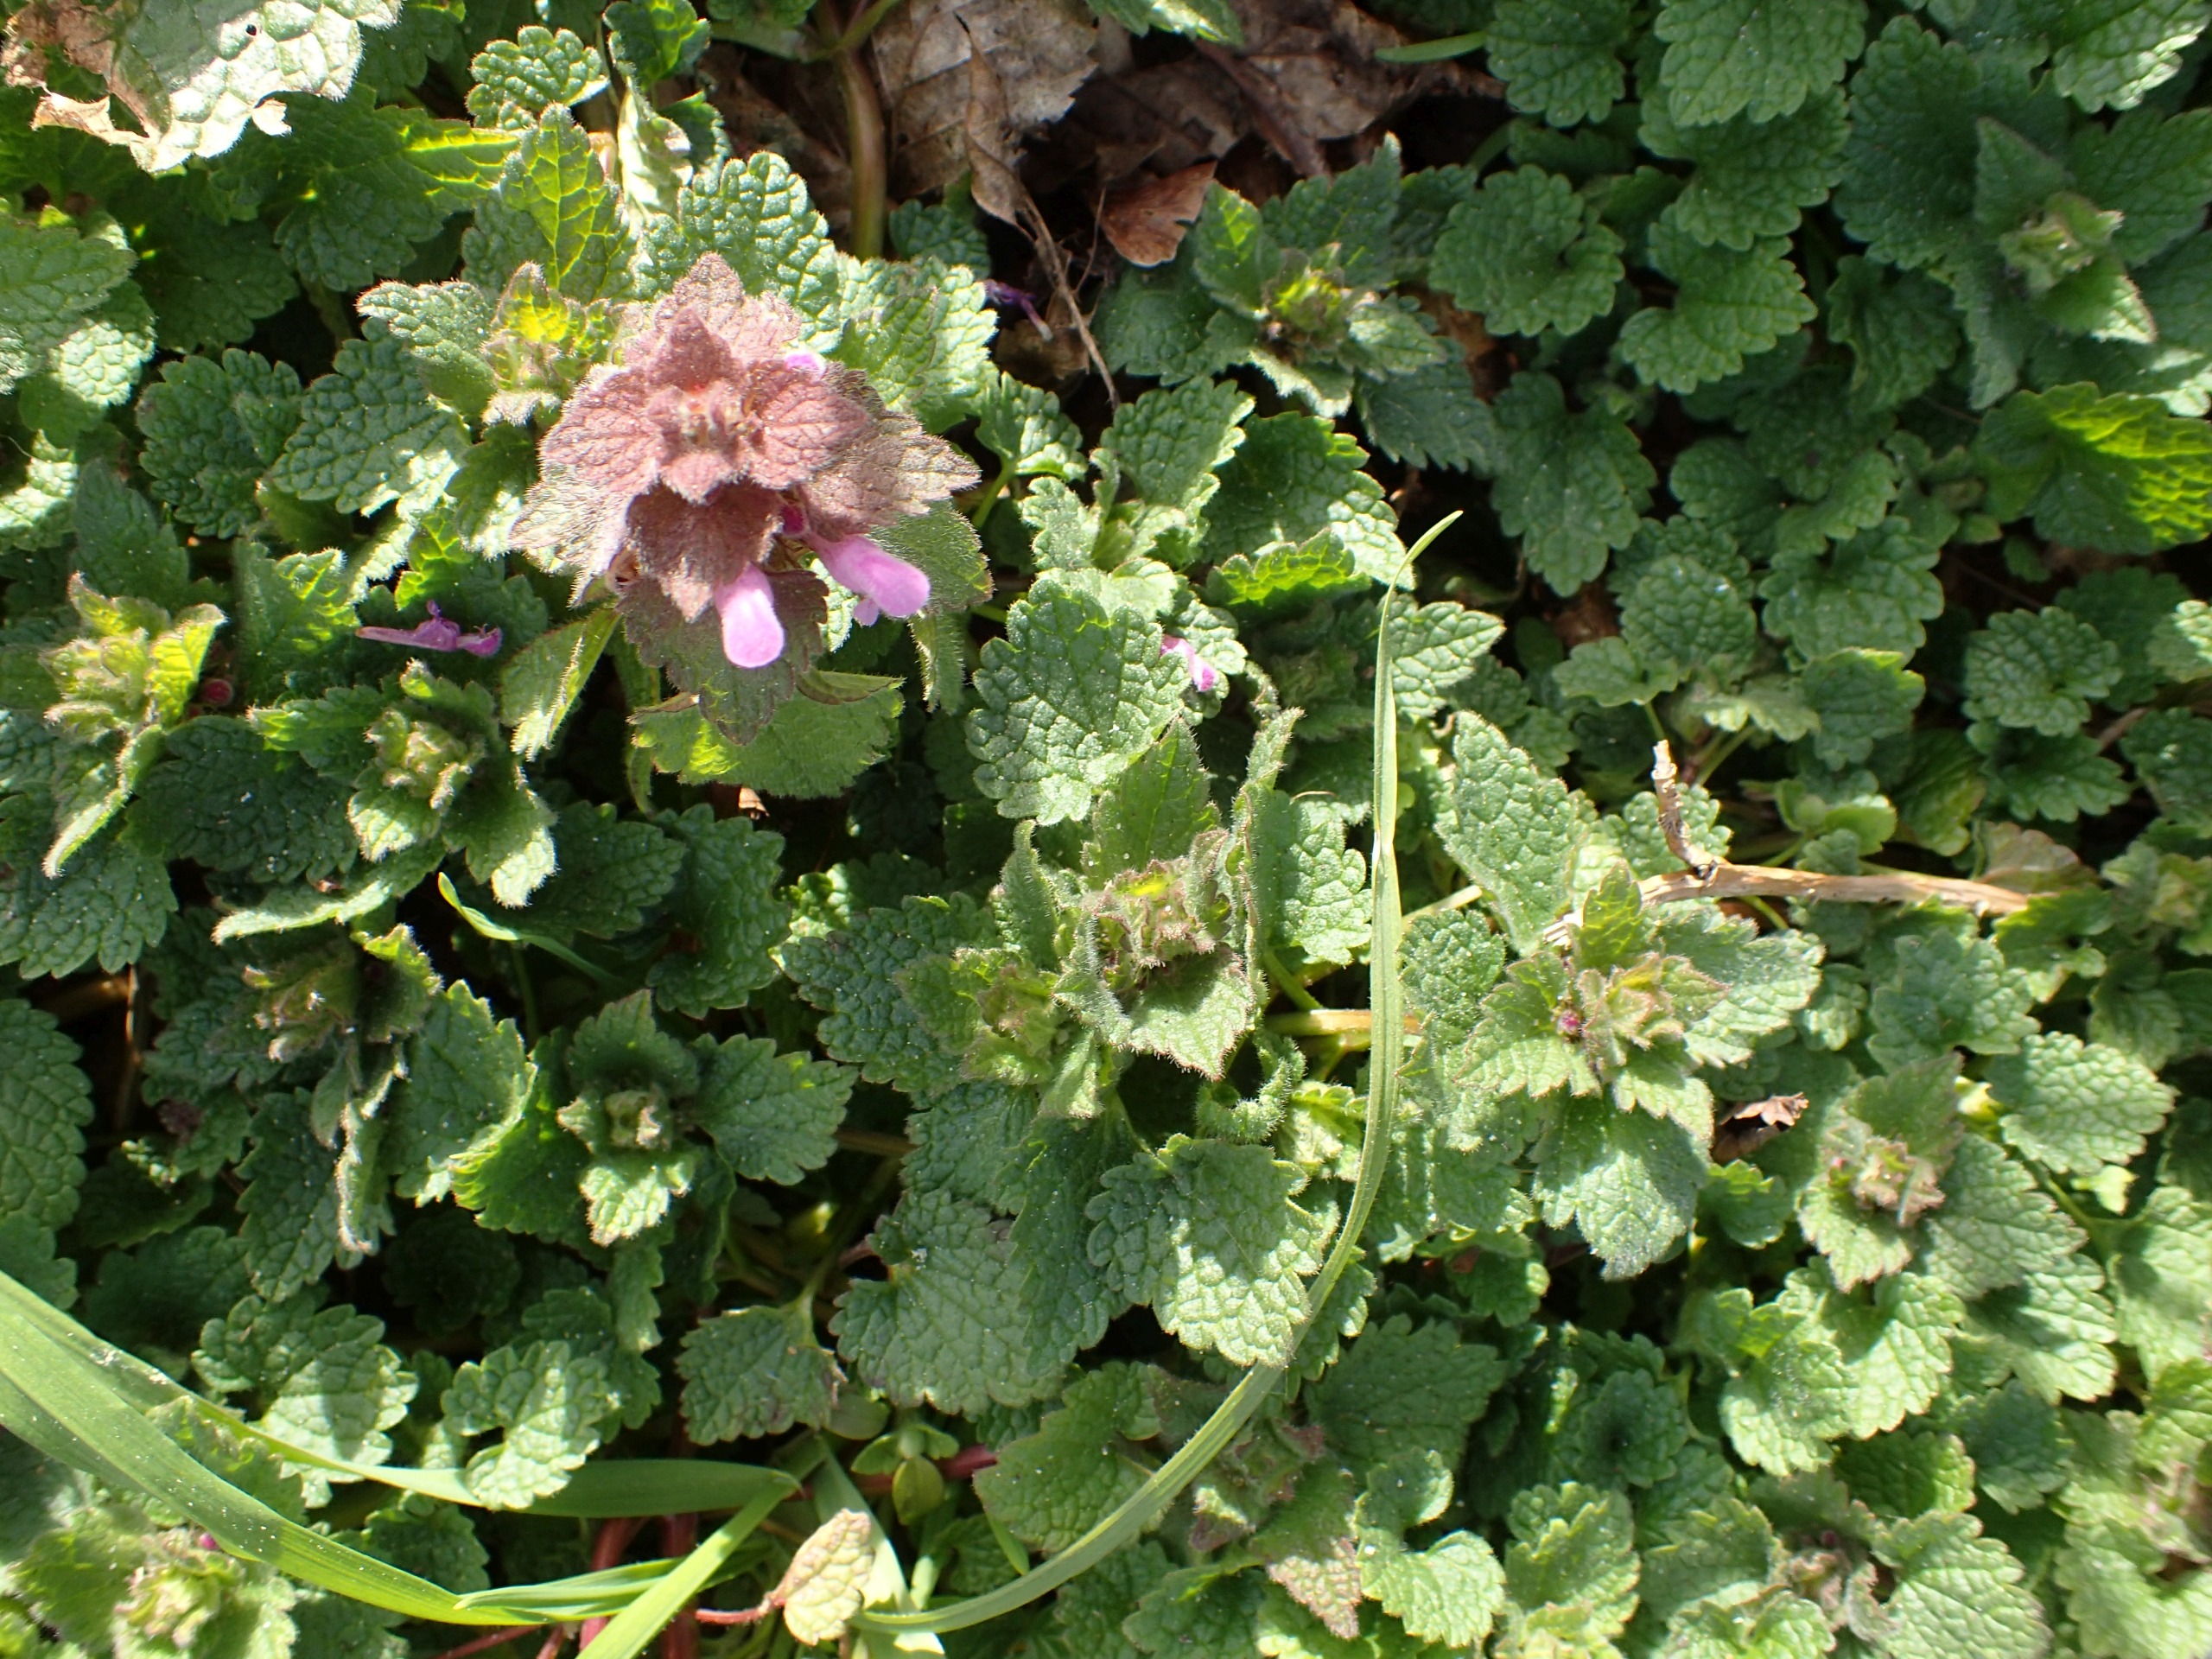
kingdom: Plantae
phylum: Tracheophyta
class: Magnoliopsida
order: Lamiales
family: Lamiaceae
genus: Lamium
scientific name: Lamium purpureum
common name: Rød tvetand
